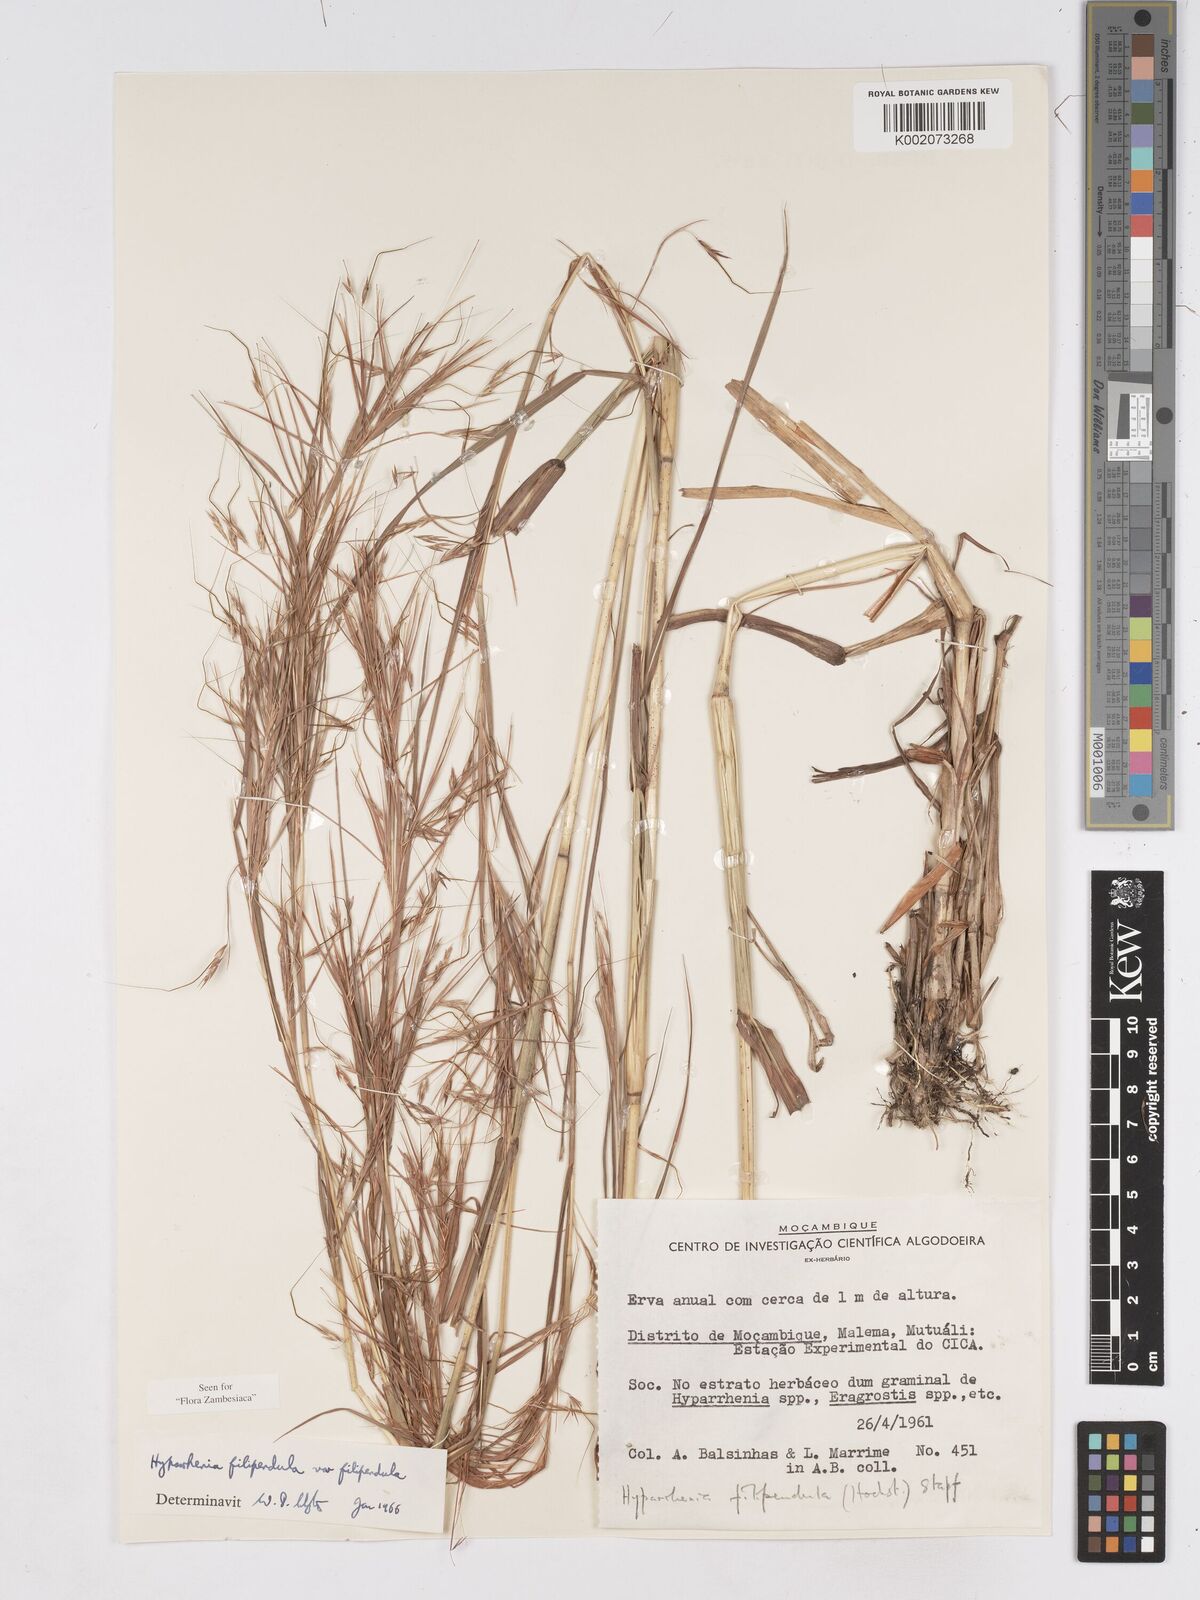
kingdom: Plantae
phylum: Tracheophyta
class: Liliopsida
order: Poales
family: Poaceae
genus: Hyparrhenia
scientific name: Hyparrhenia filipendula
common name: Tambookie grass
